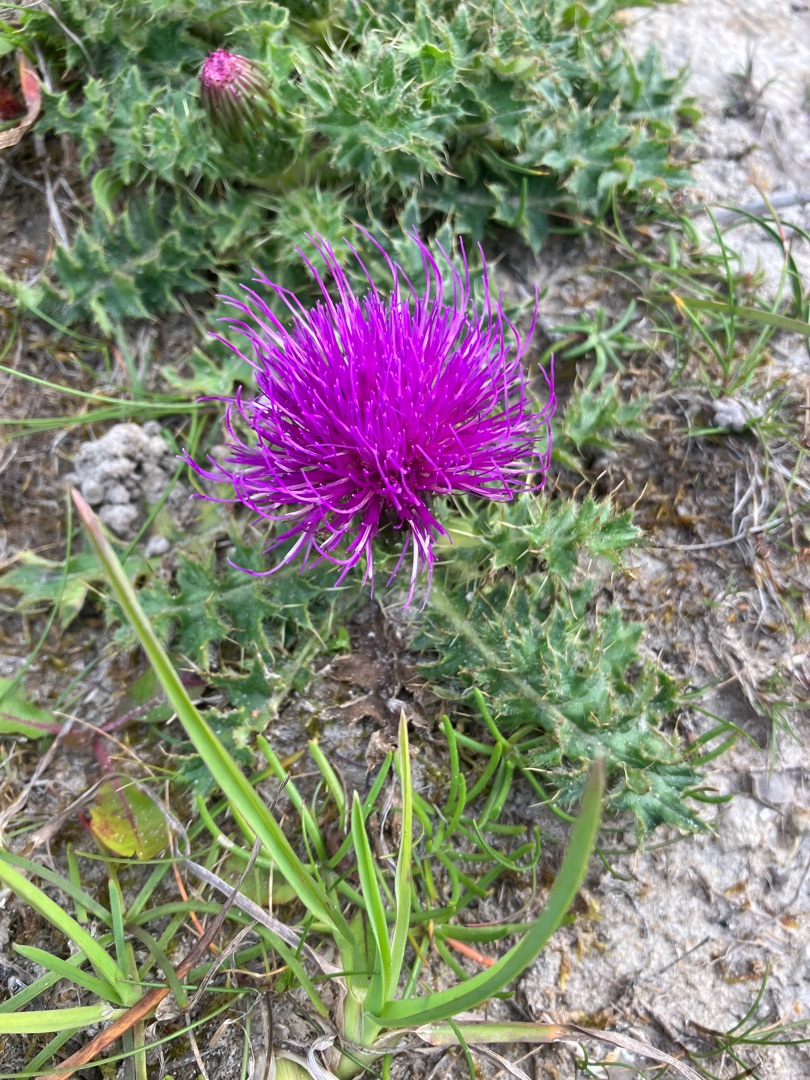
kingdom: Plantae
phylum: Tracheophyta
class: Magnoliopsida
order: Asterales
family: Asteraceae
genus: Cirsium
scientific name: Cirsium acaule
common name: Lav tidsel
